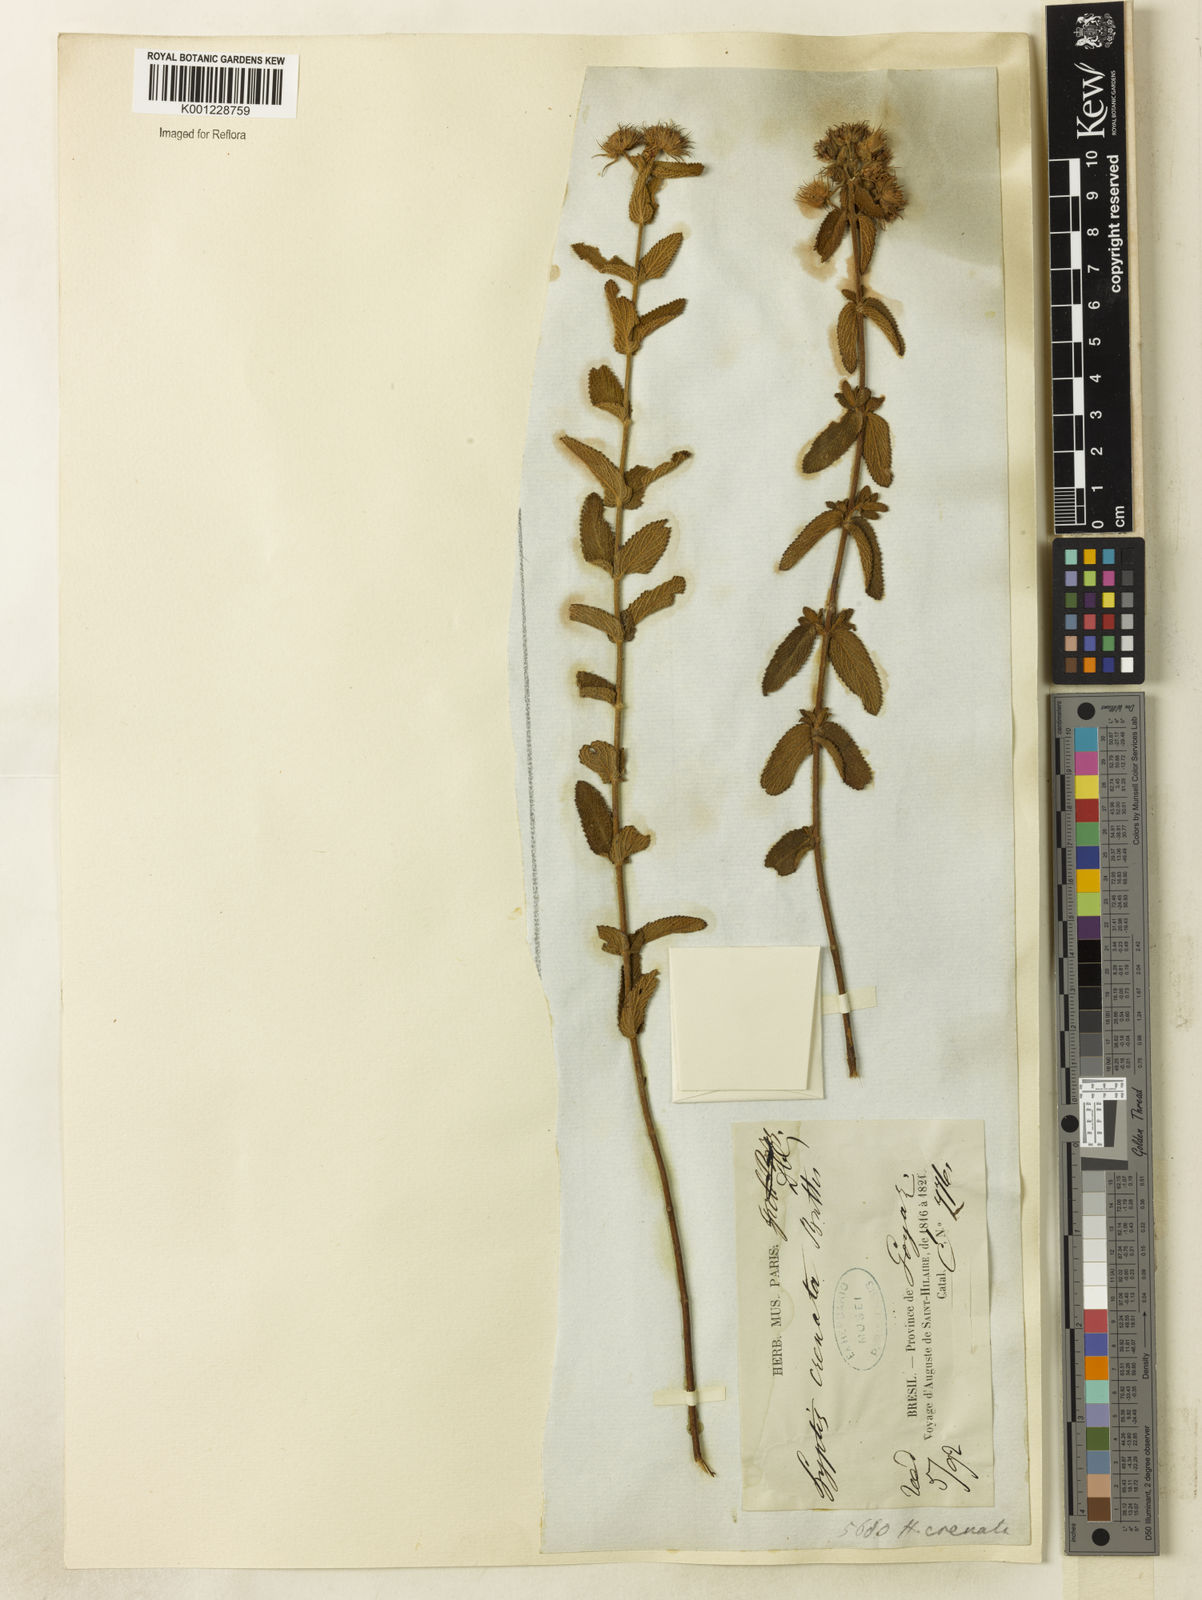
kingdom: Plantae
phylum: Tracheophyta
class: Magnoliopsida
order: Lamiales
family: Lamiaceae
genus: Hyptis
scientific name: Hyptis crenata
